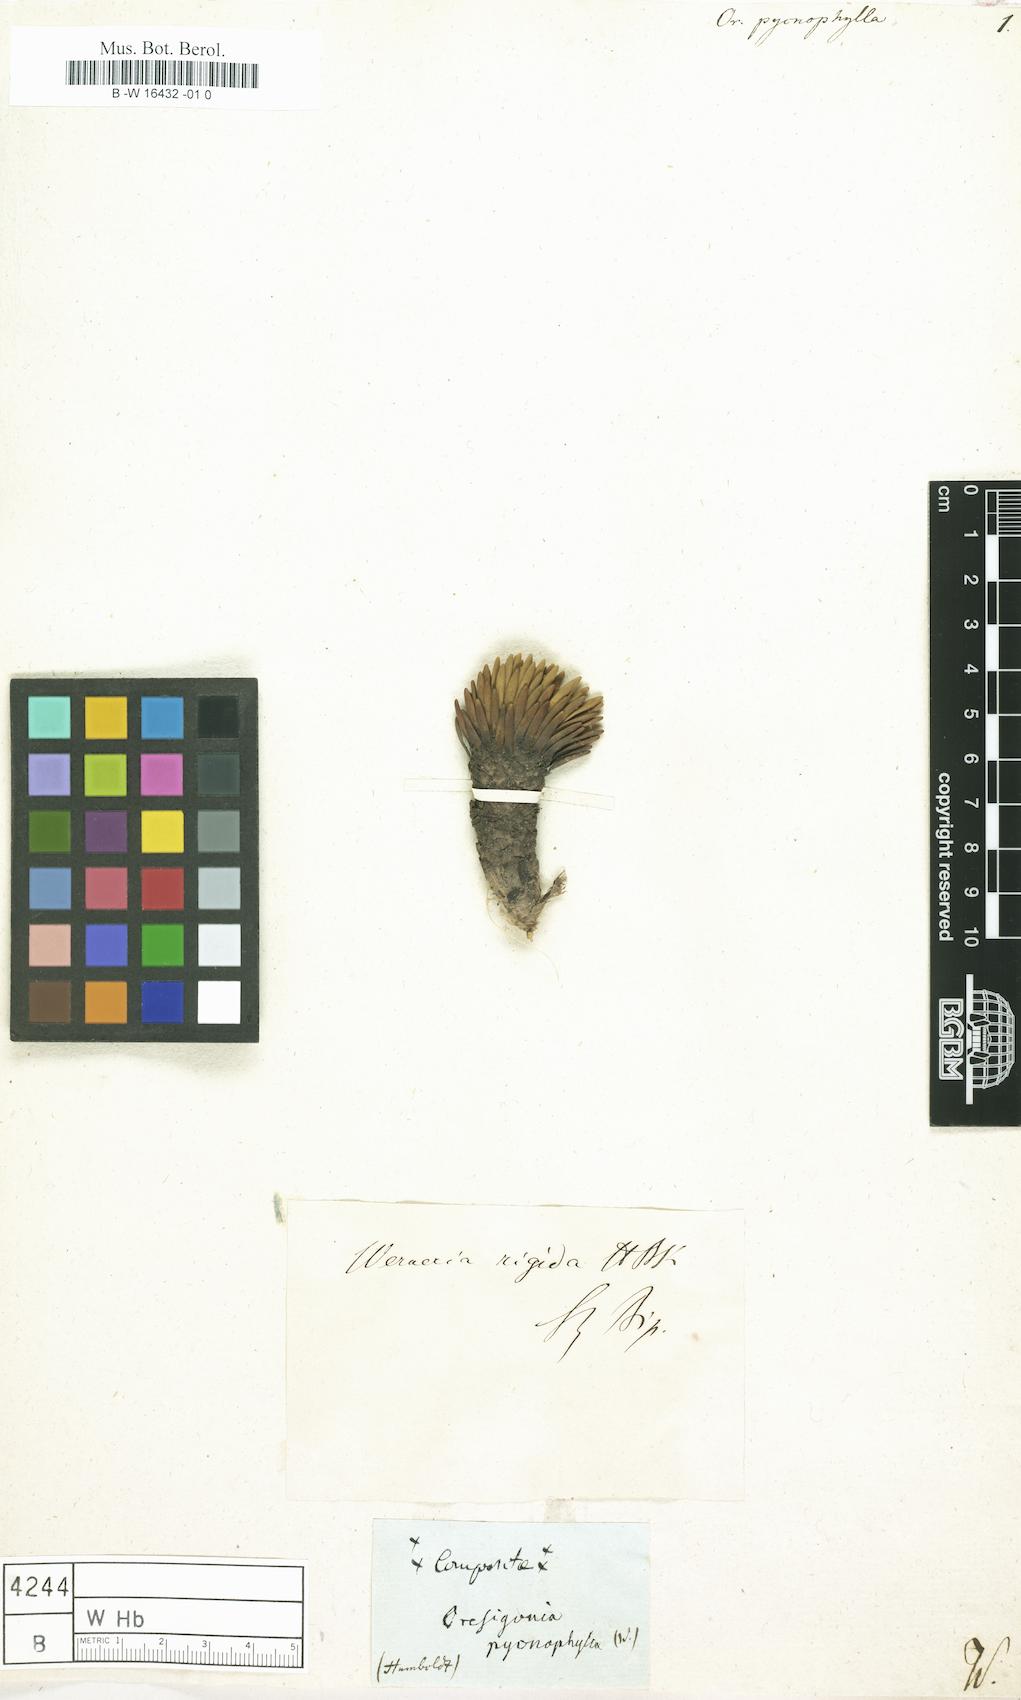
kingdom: Plantae
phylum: Tracheophyta
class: Magnoliopsida
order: Asterales
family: Asteraceae
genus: Werneria
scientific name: Werneria rigida
